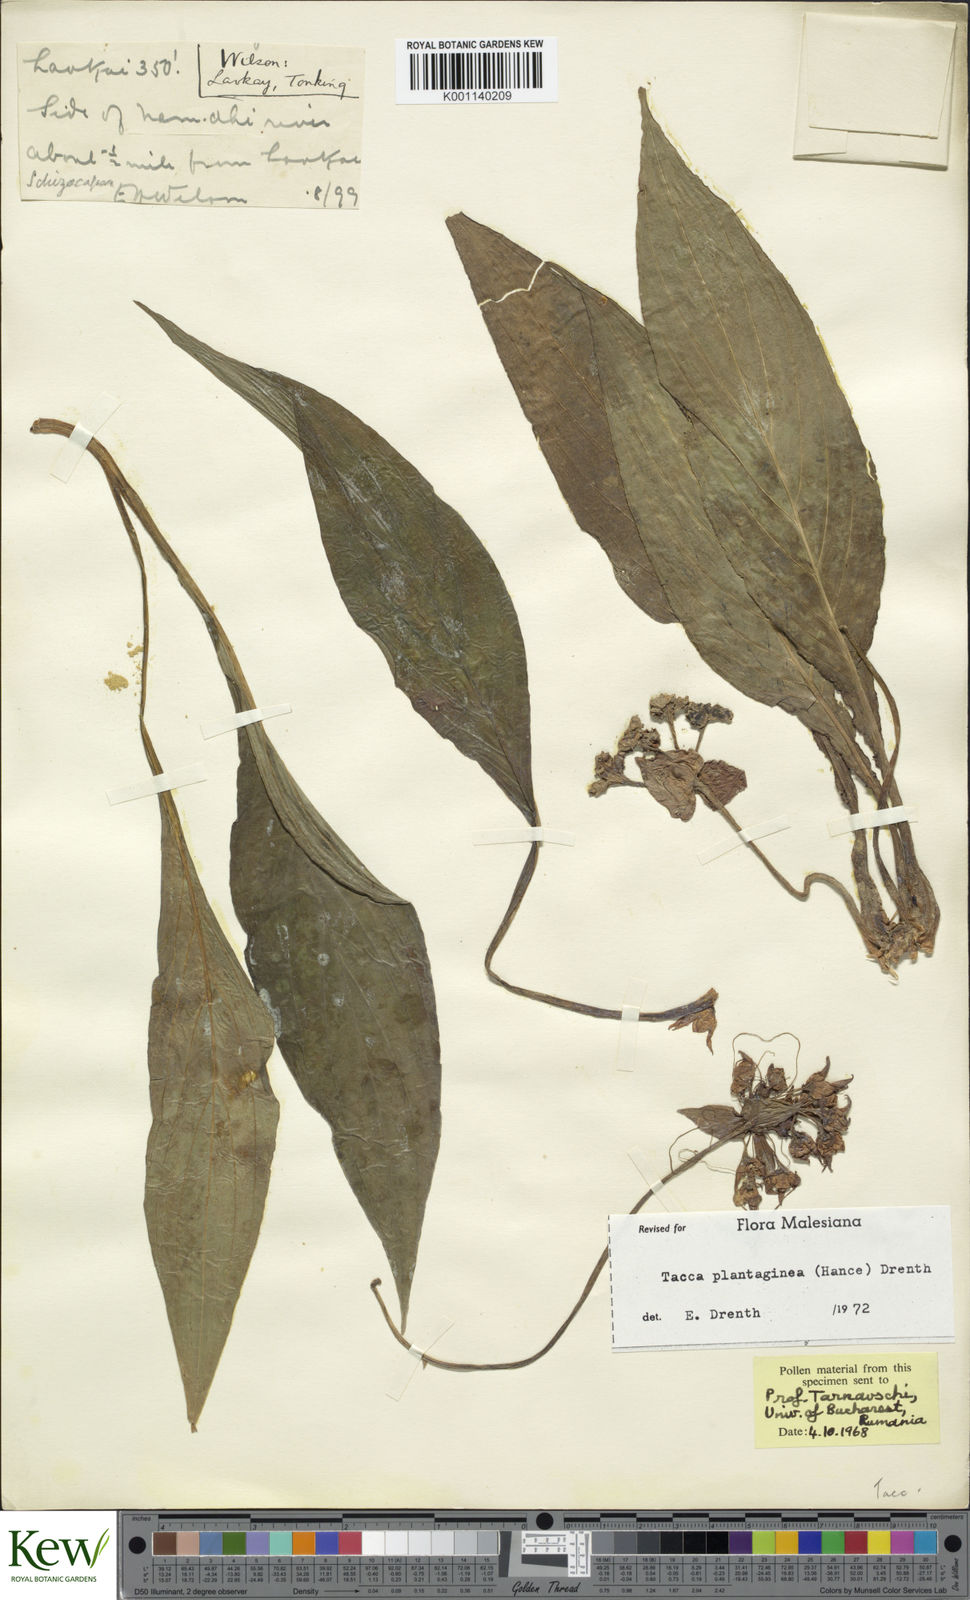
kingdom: Plantae
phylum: Tracheophyta
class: Liliopsida
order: Dioscoreales
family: Dioscoreaceae
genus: Tacca
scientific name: Tacca plantaginea
